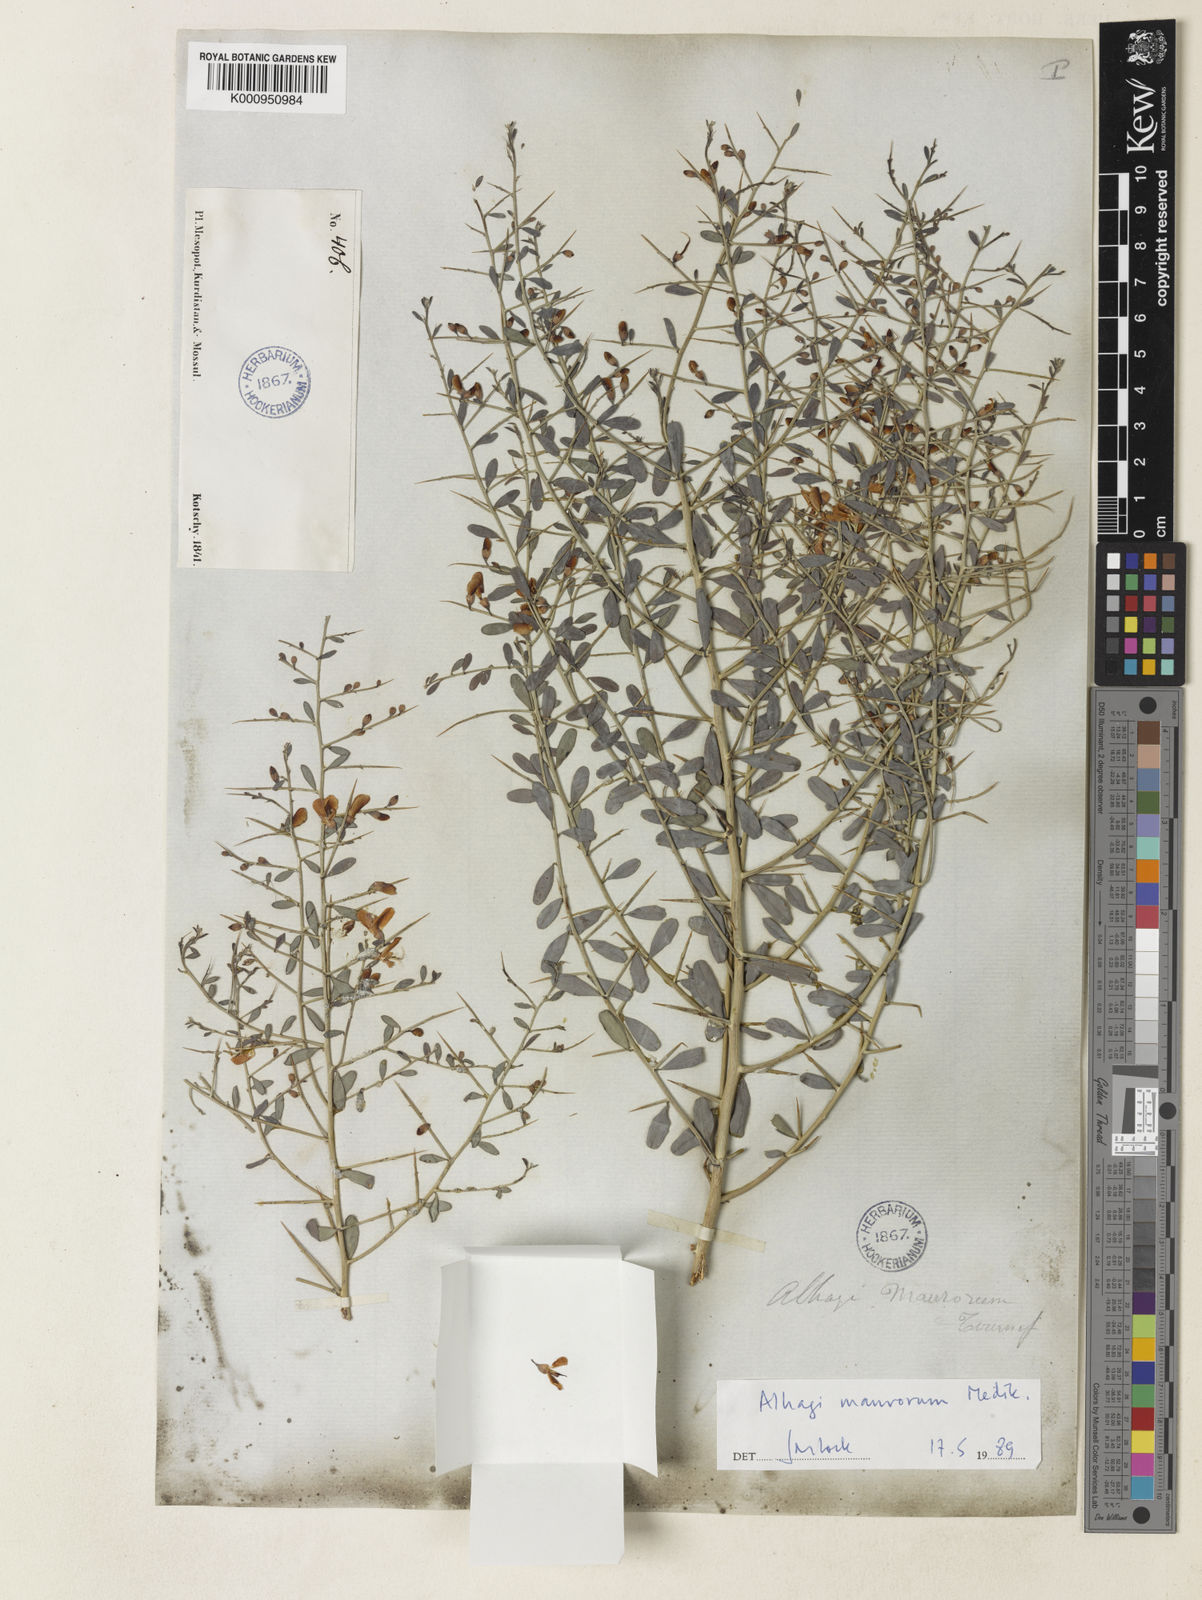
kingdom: Plantae
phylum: Tracheophyta
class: Magnoliopsida
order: Fabales
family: Fabaceae
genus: Alhagi
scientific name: Alhagi maurorum
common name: Camelthorn
